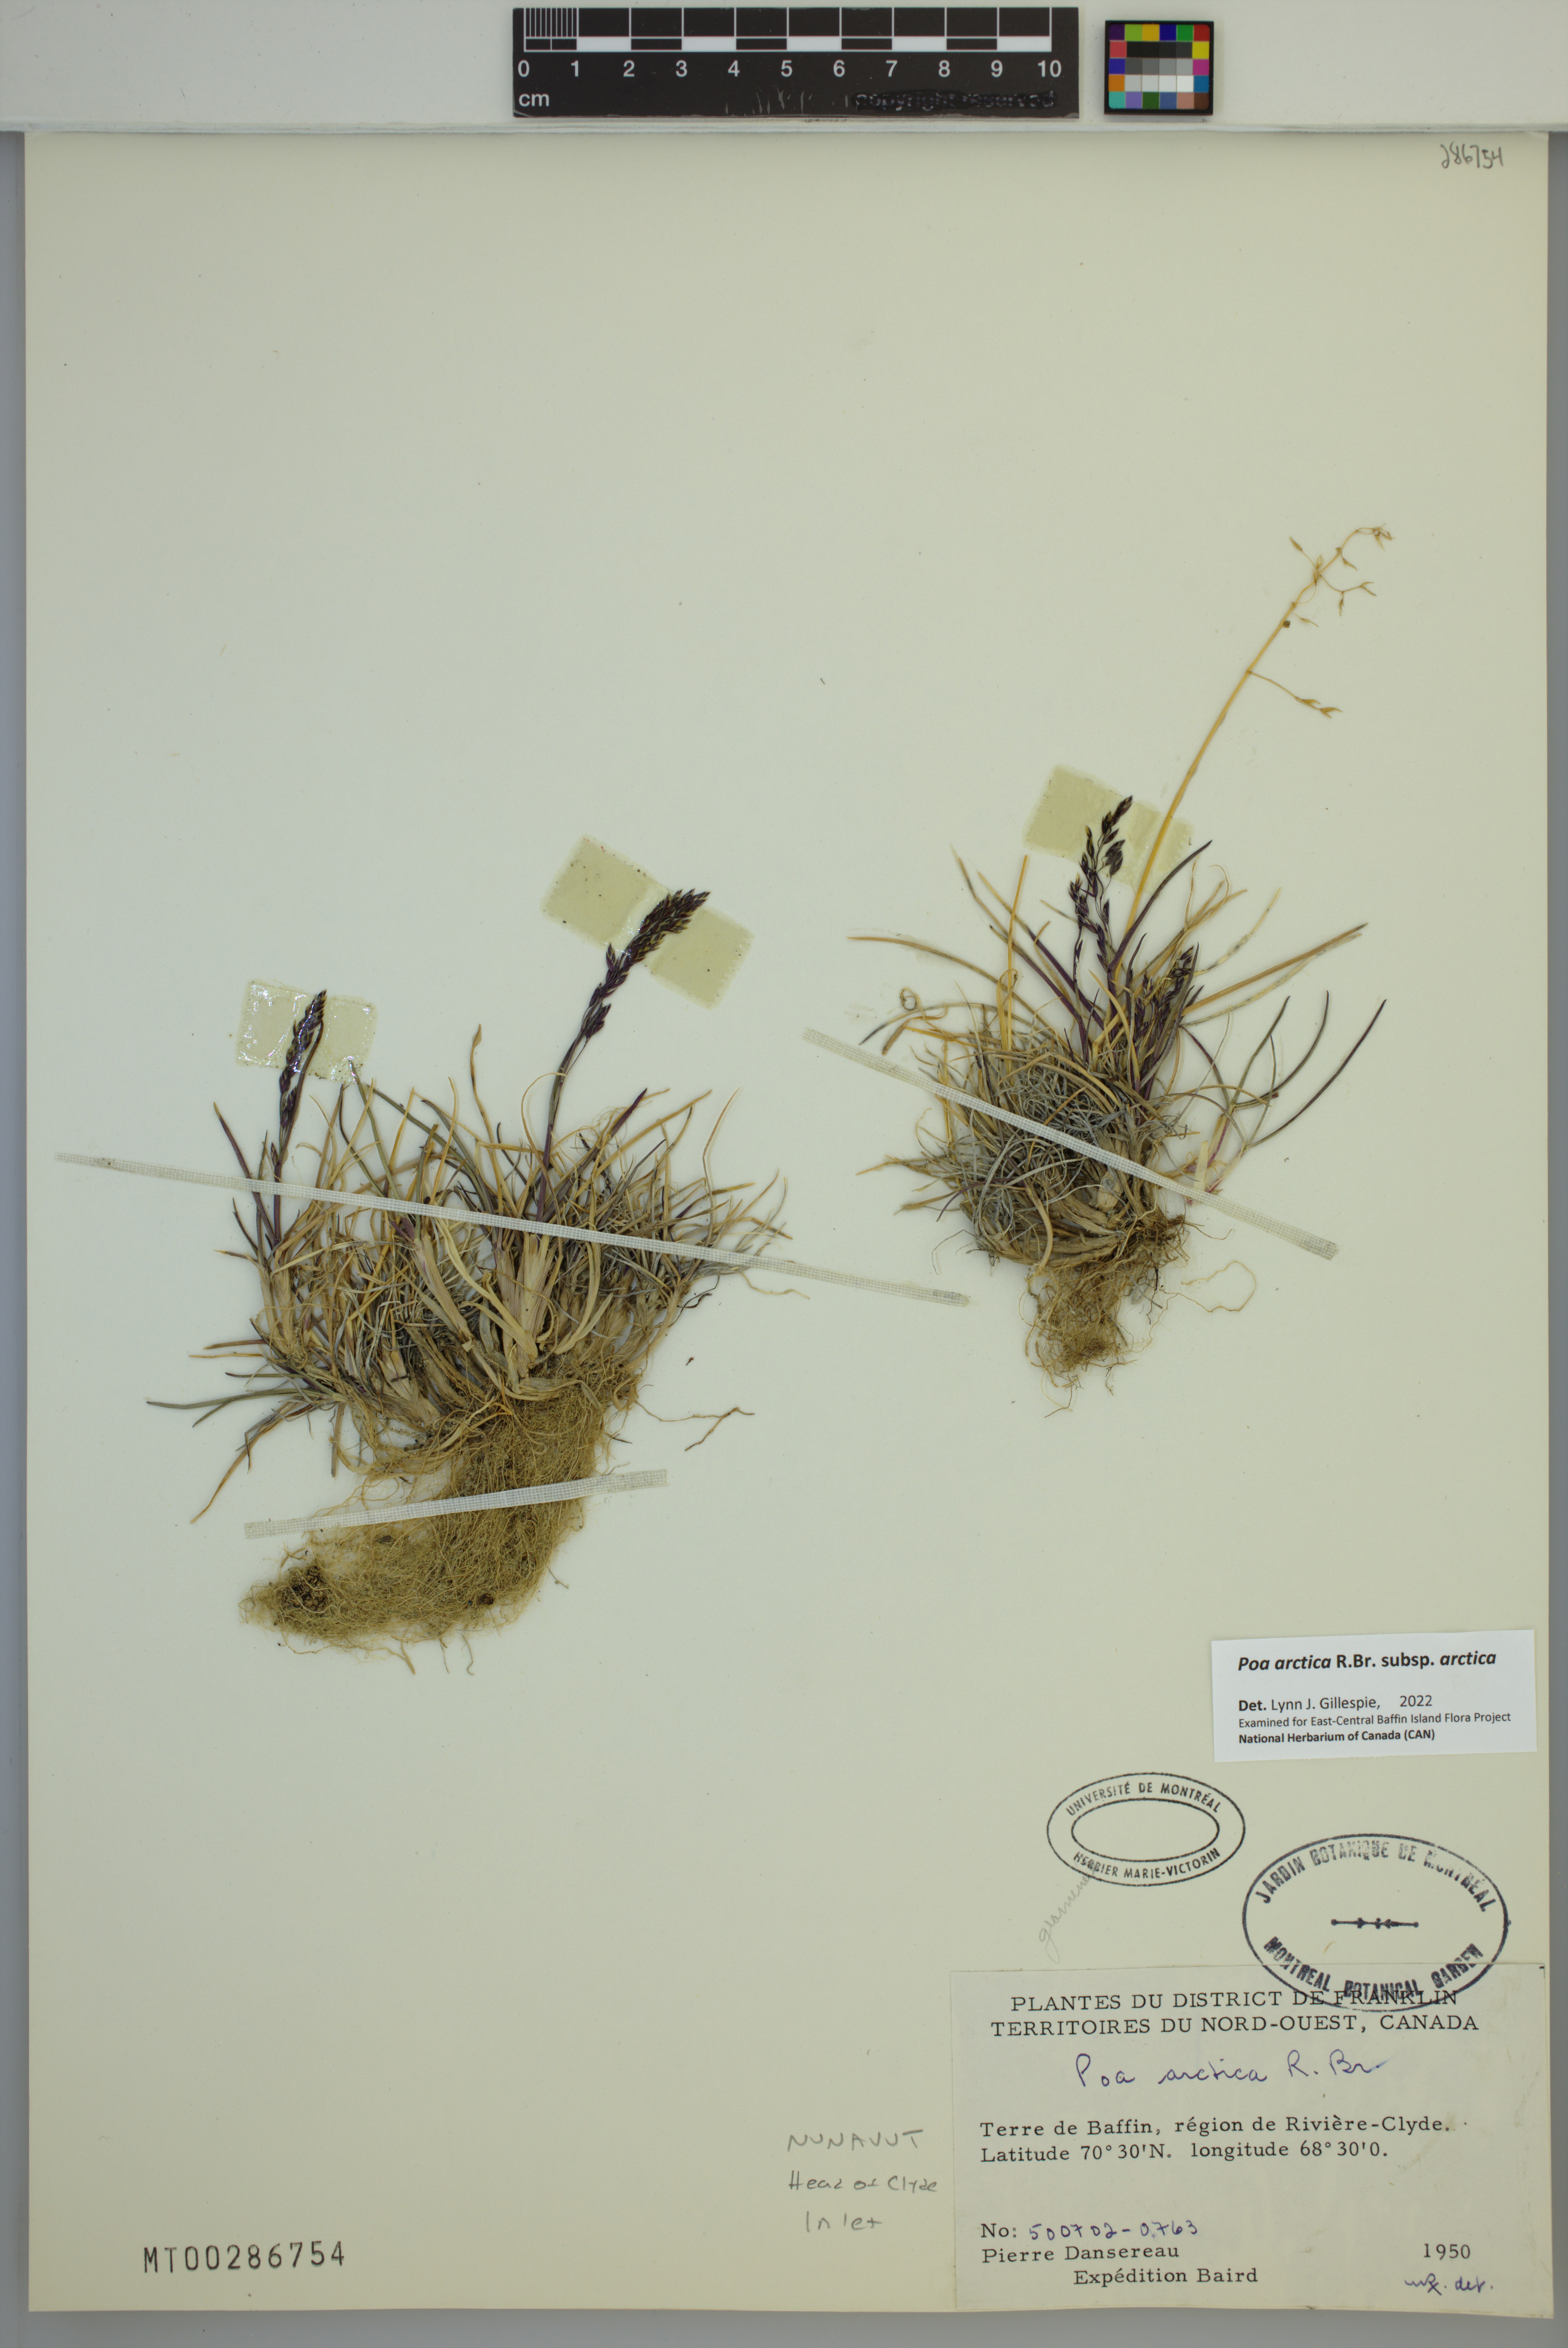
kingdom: Plantae
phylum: Tracheophyta
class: Liliopsida
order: Poales
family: Poaceae
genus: Poa
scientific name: Poa arctica
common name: Arctic bluegrass
